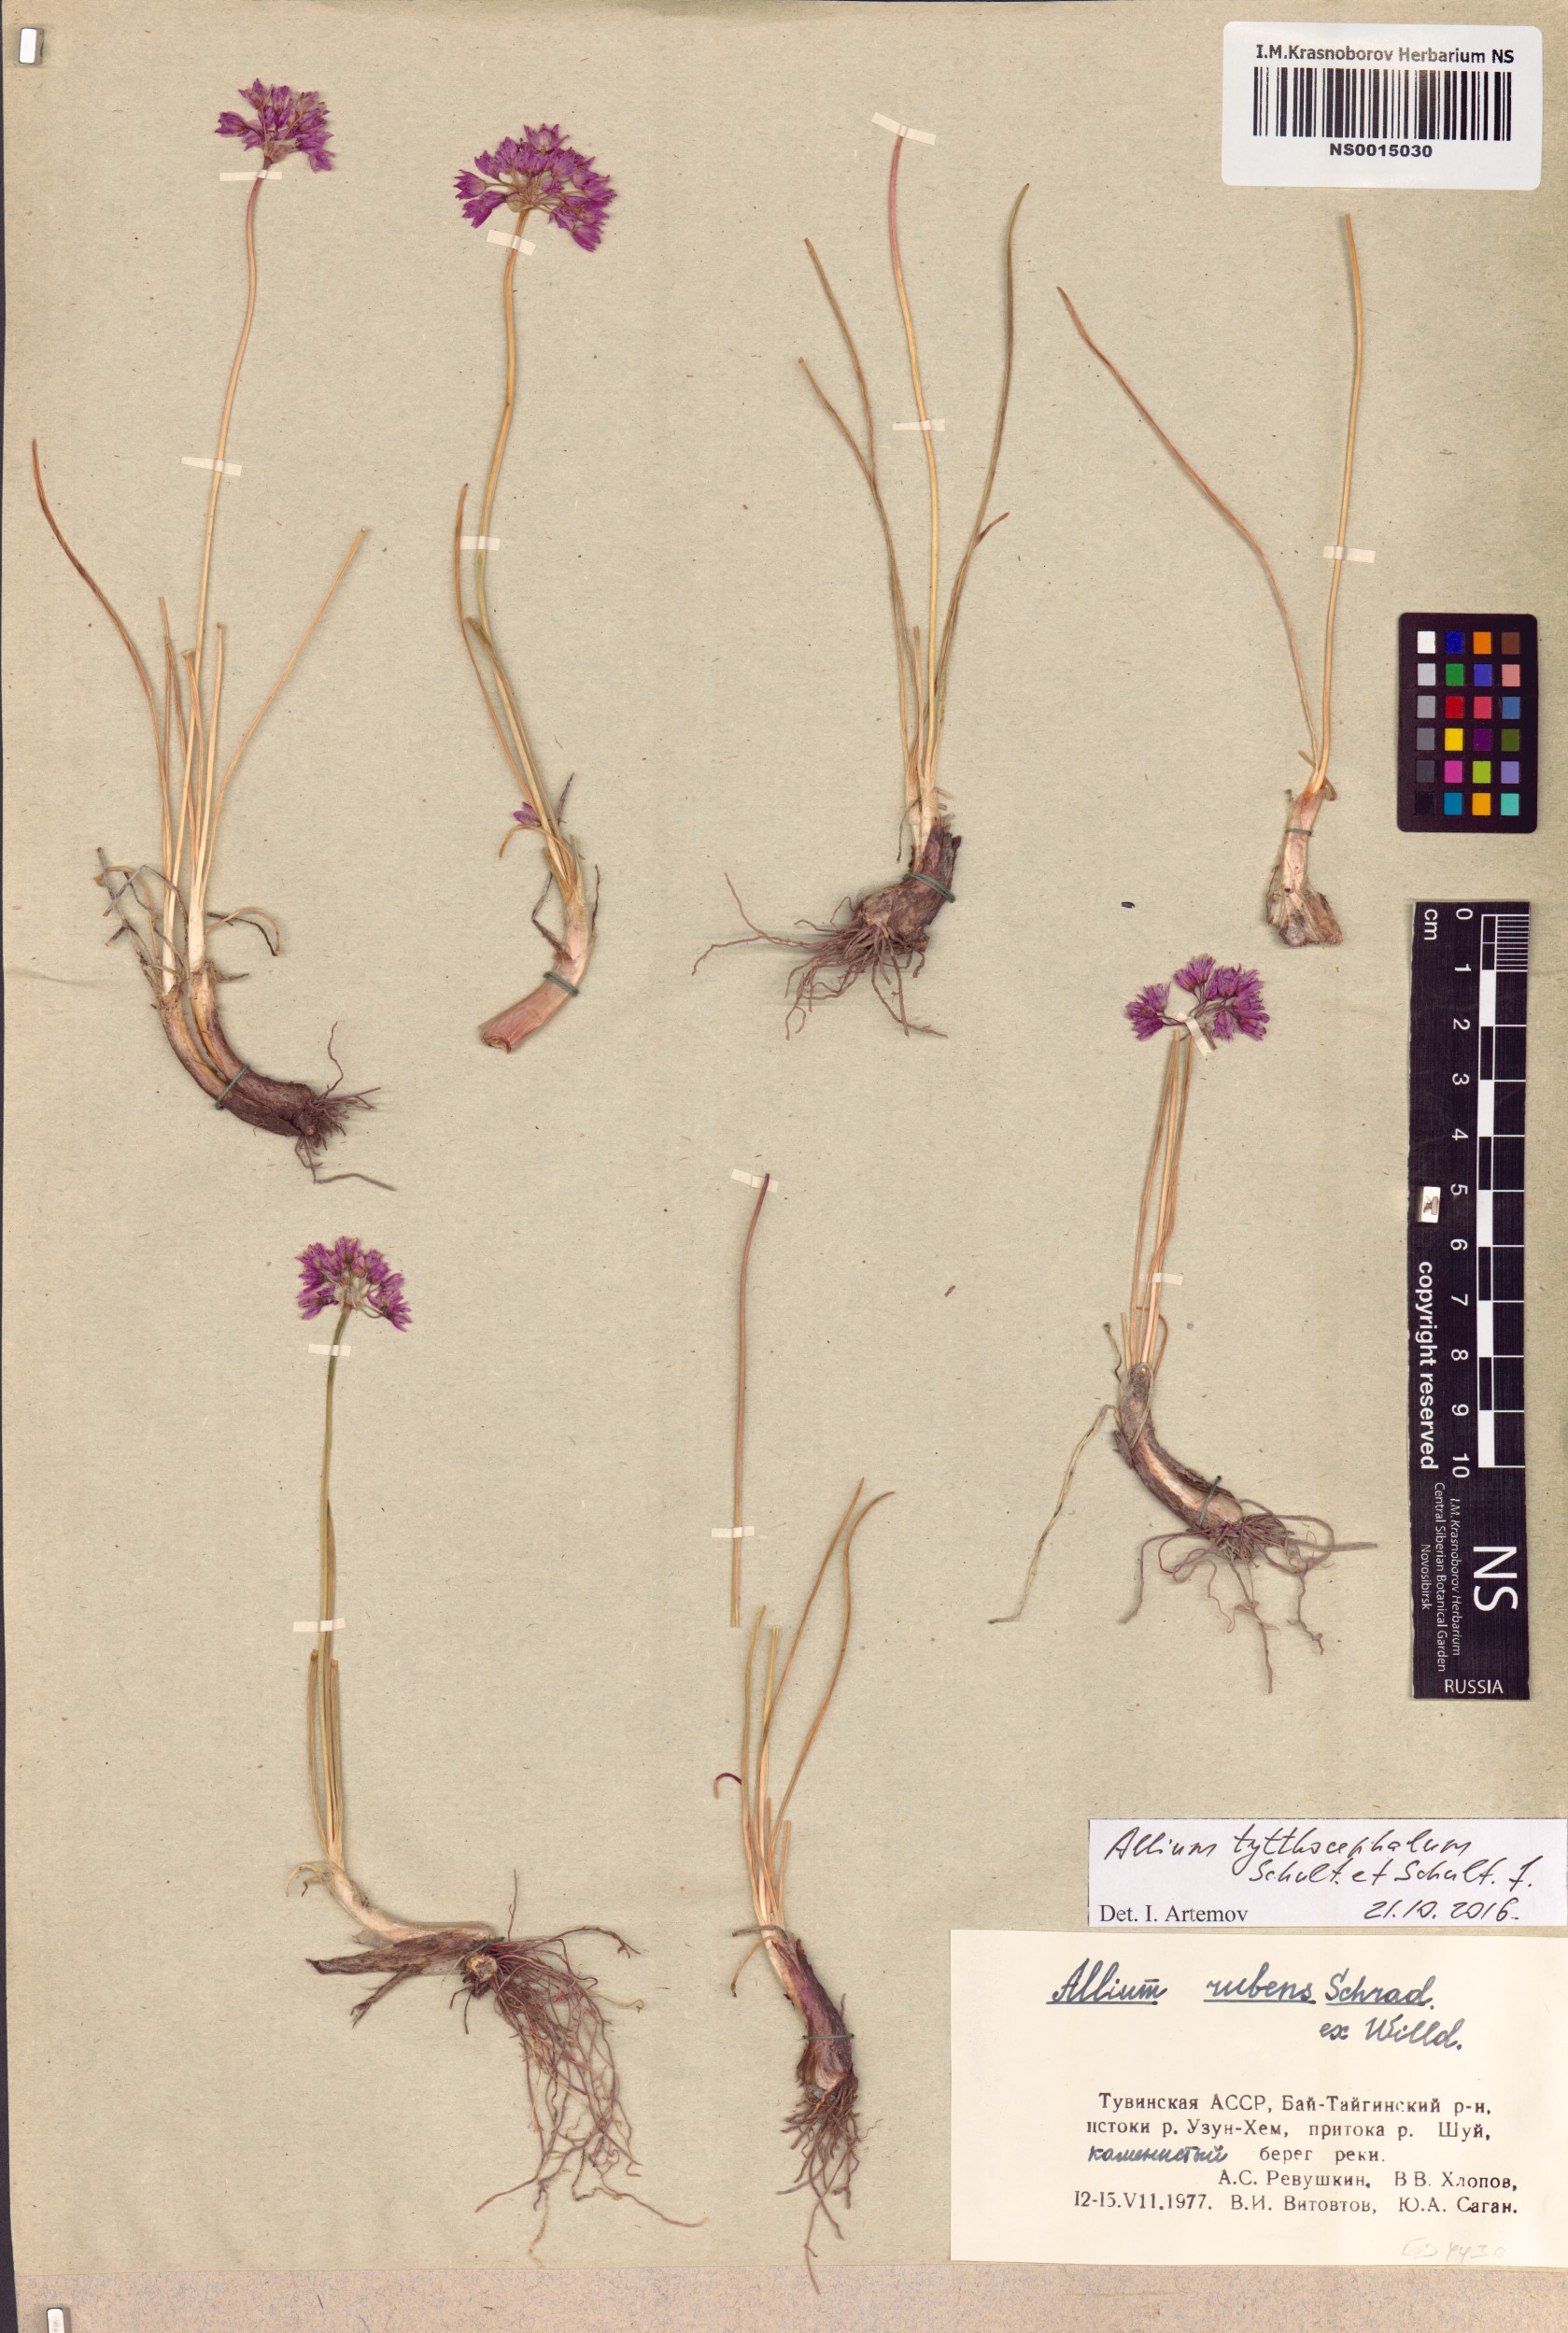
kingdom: Plantae
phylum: Tracheophyta
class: Liliopsida
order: Asparagales
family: Amaryllidaceae
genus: Allium
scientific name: Allium tytthocephalum
